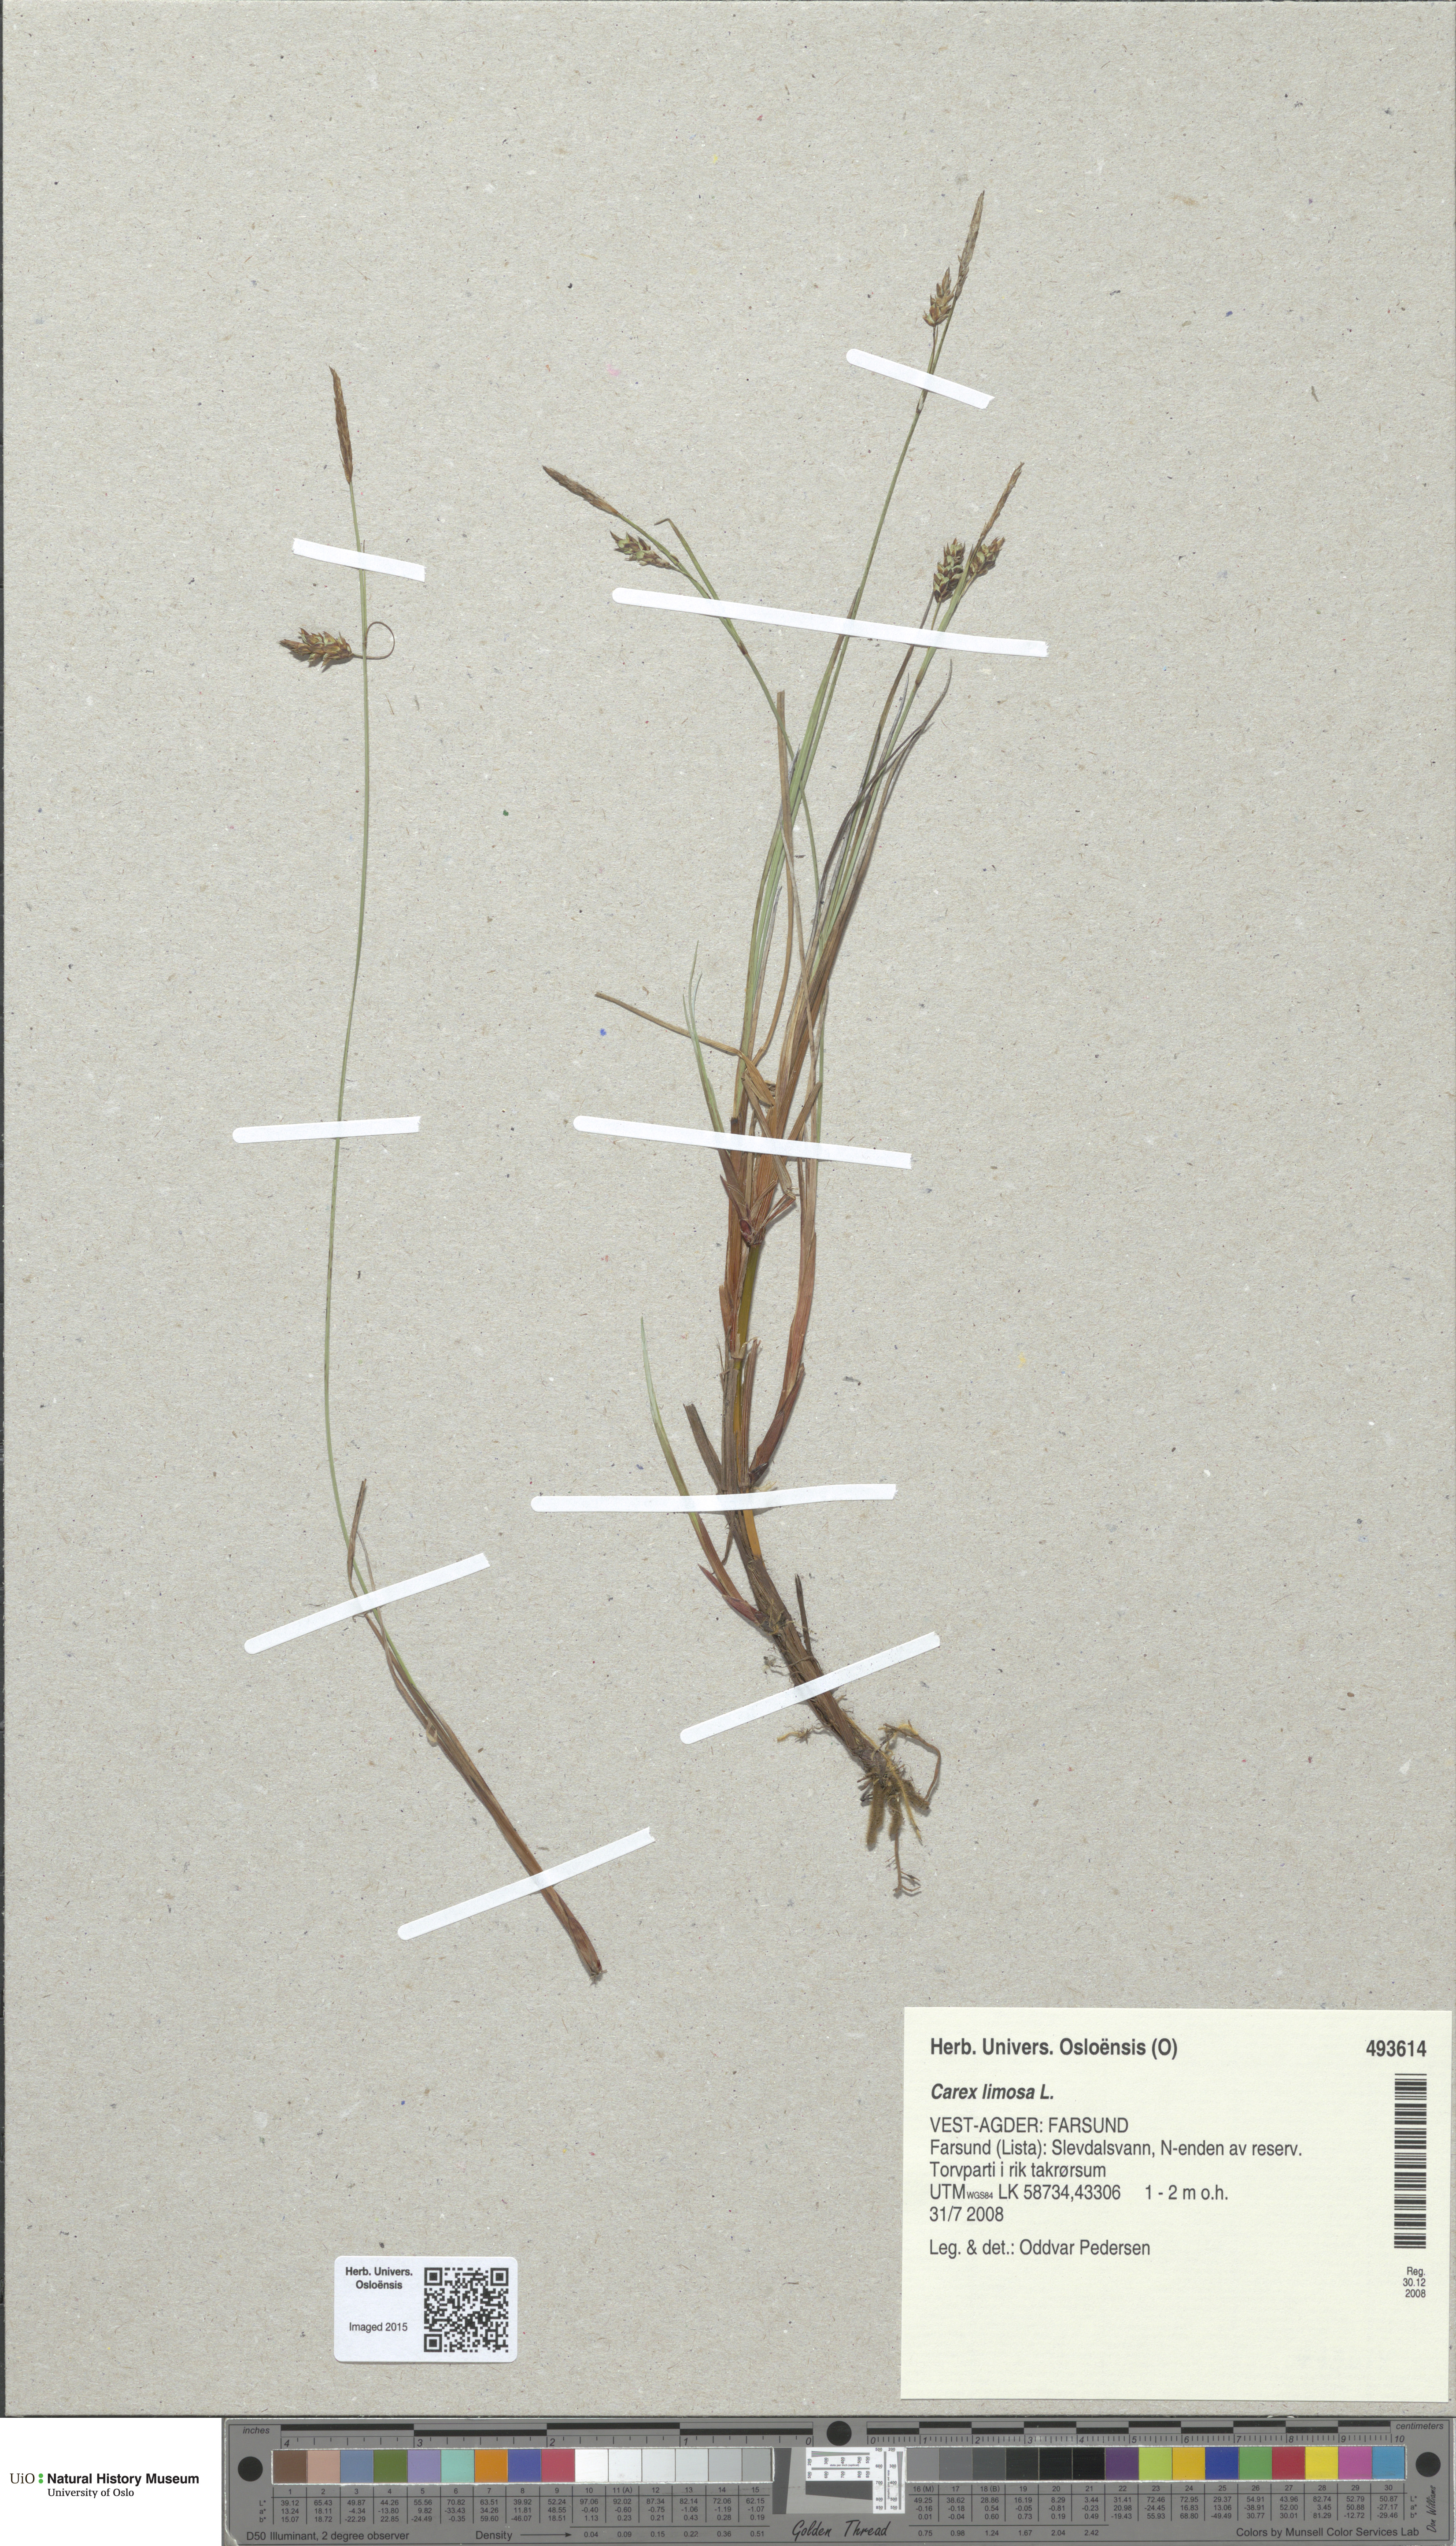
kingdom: Plantae
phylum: Tracheophyta
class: Liliopsida
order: Poales
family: Cyperaceae
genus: Carex
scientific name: Carex limosa
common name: Bog sedge
